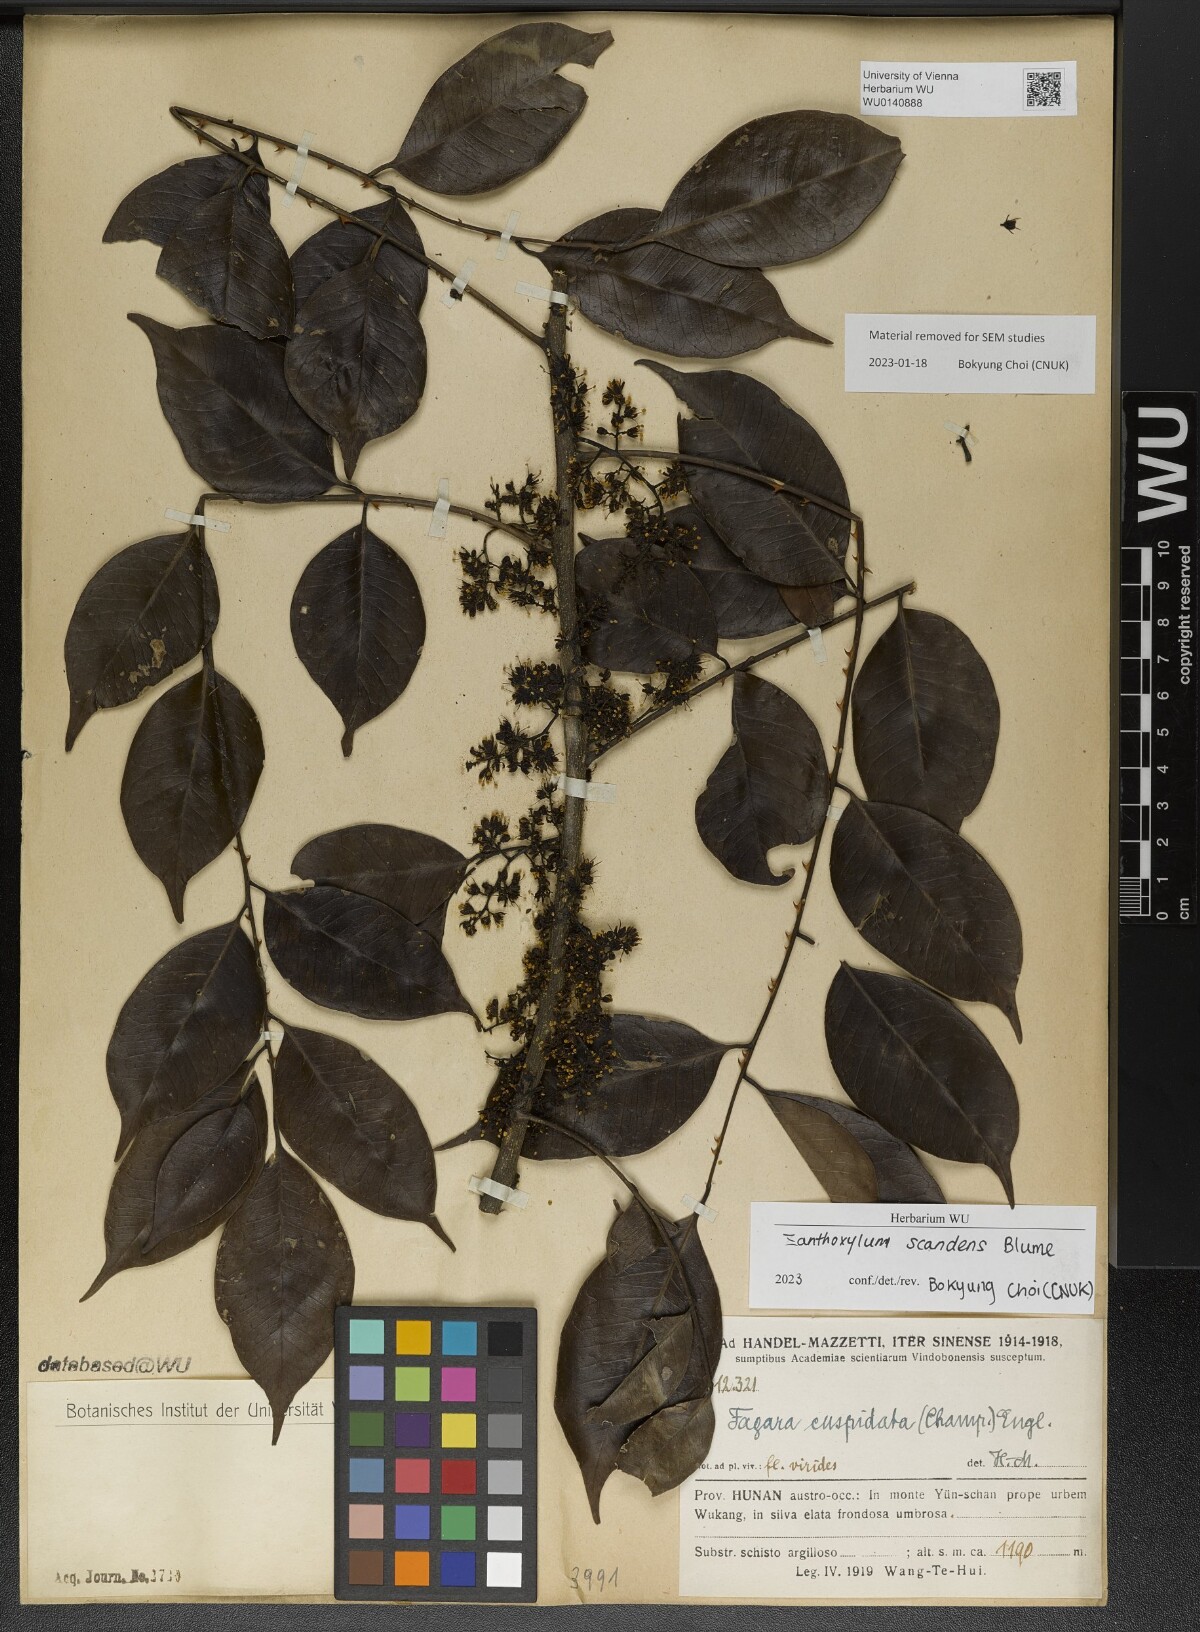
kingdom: Plantae
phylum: Tracheophyta
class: Magnoliopsida
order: Sapindales
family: Rutaceae
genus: Zanthoxylum
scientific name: Zanthoxylum scandens
